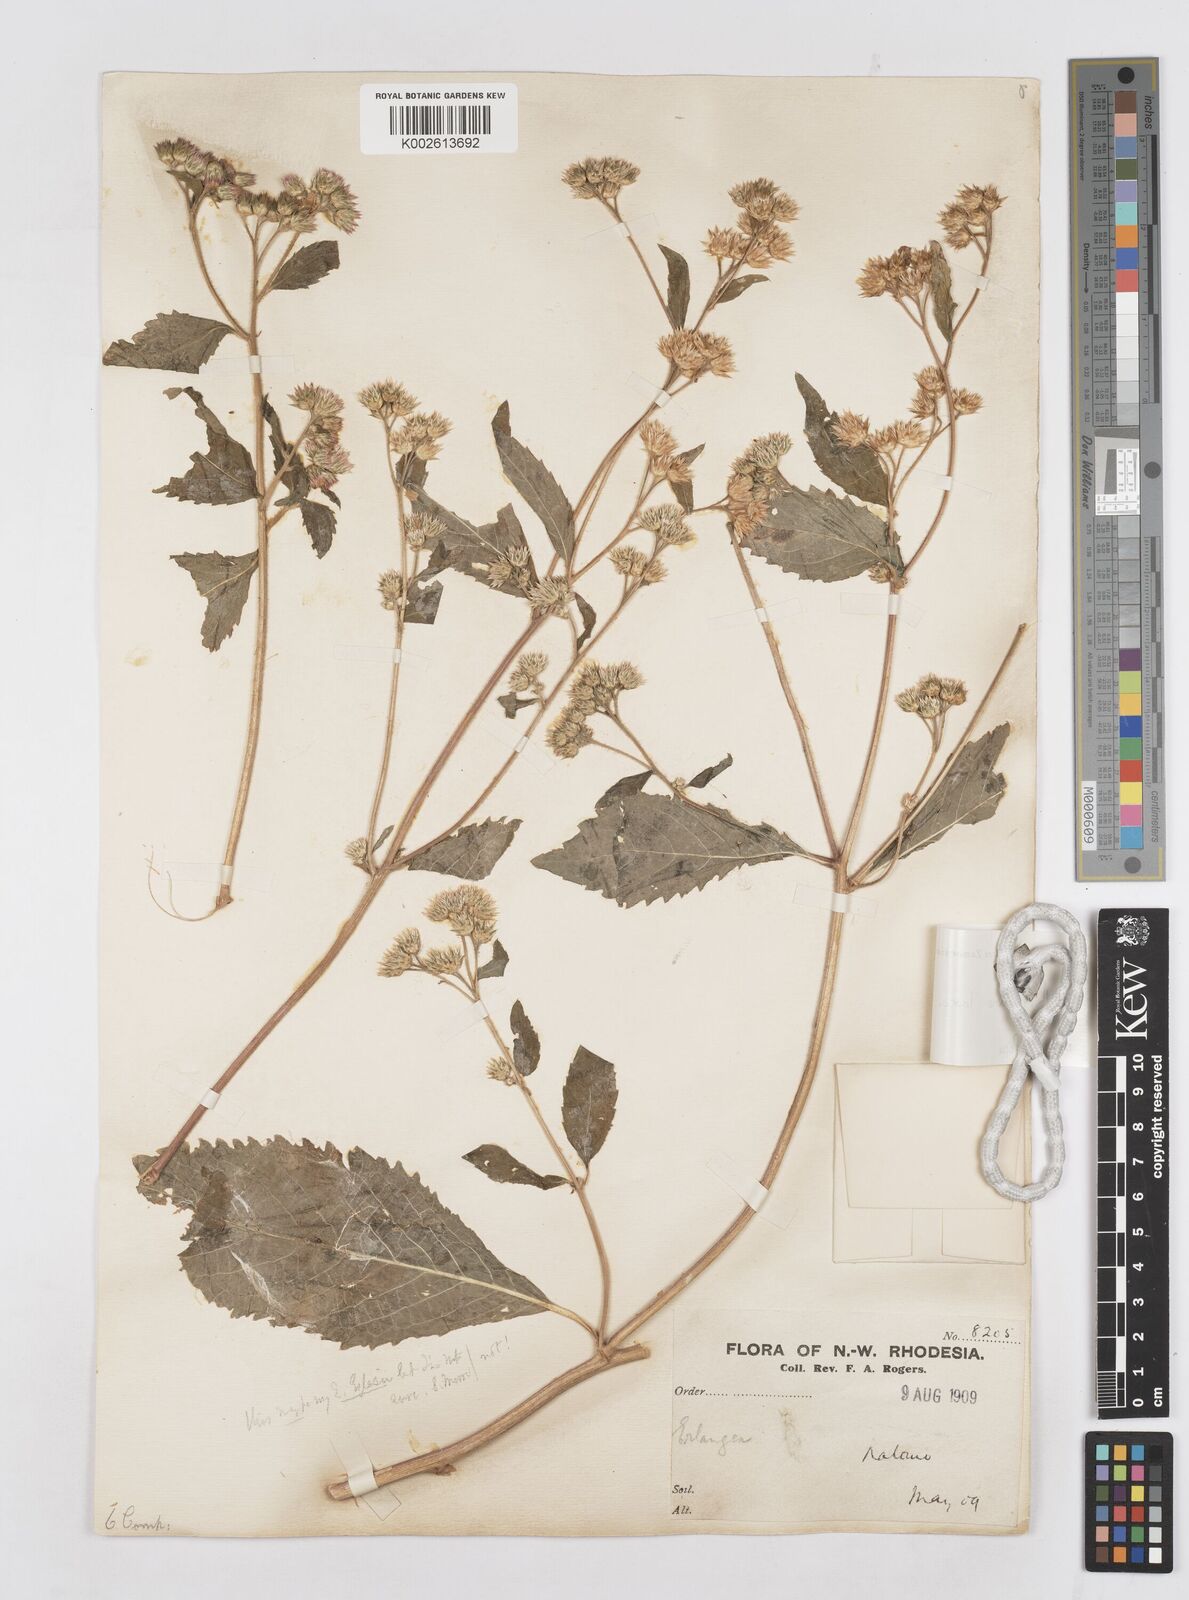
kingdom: Plantae
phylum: Tracheophyta
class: Magnoliopsida
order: Asterales
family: Asteraceae
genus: Bothriocline
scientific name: Bothriocline laxa
